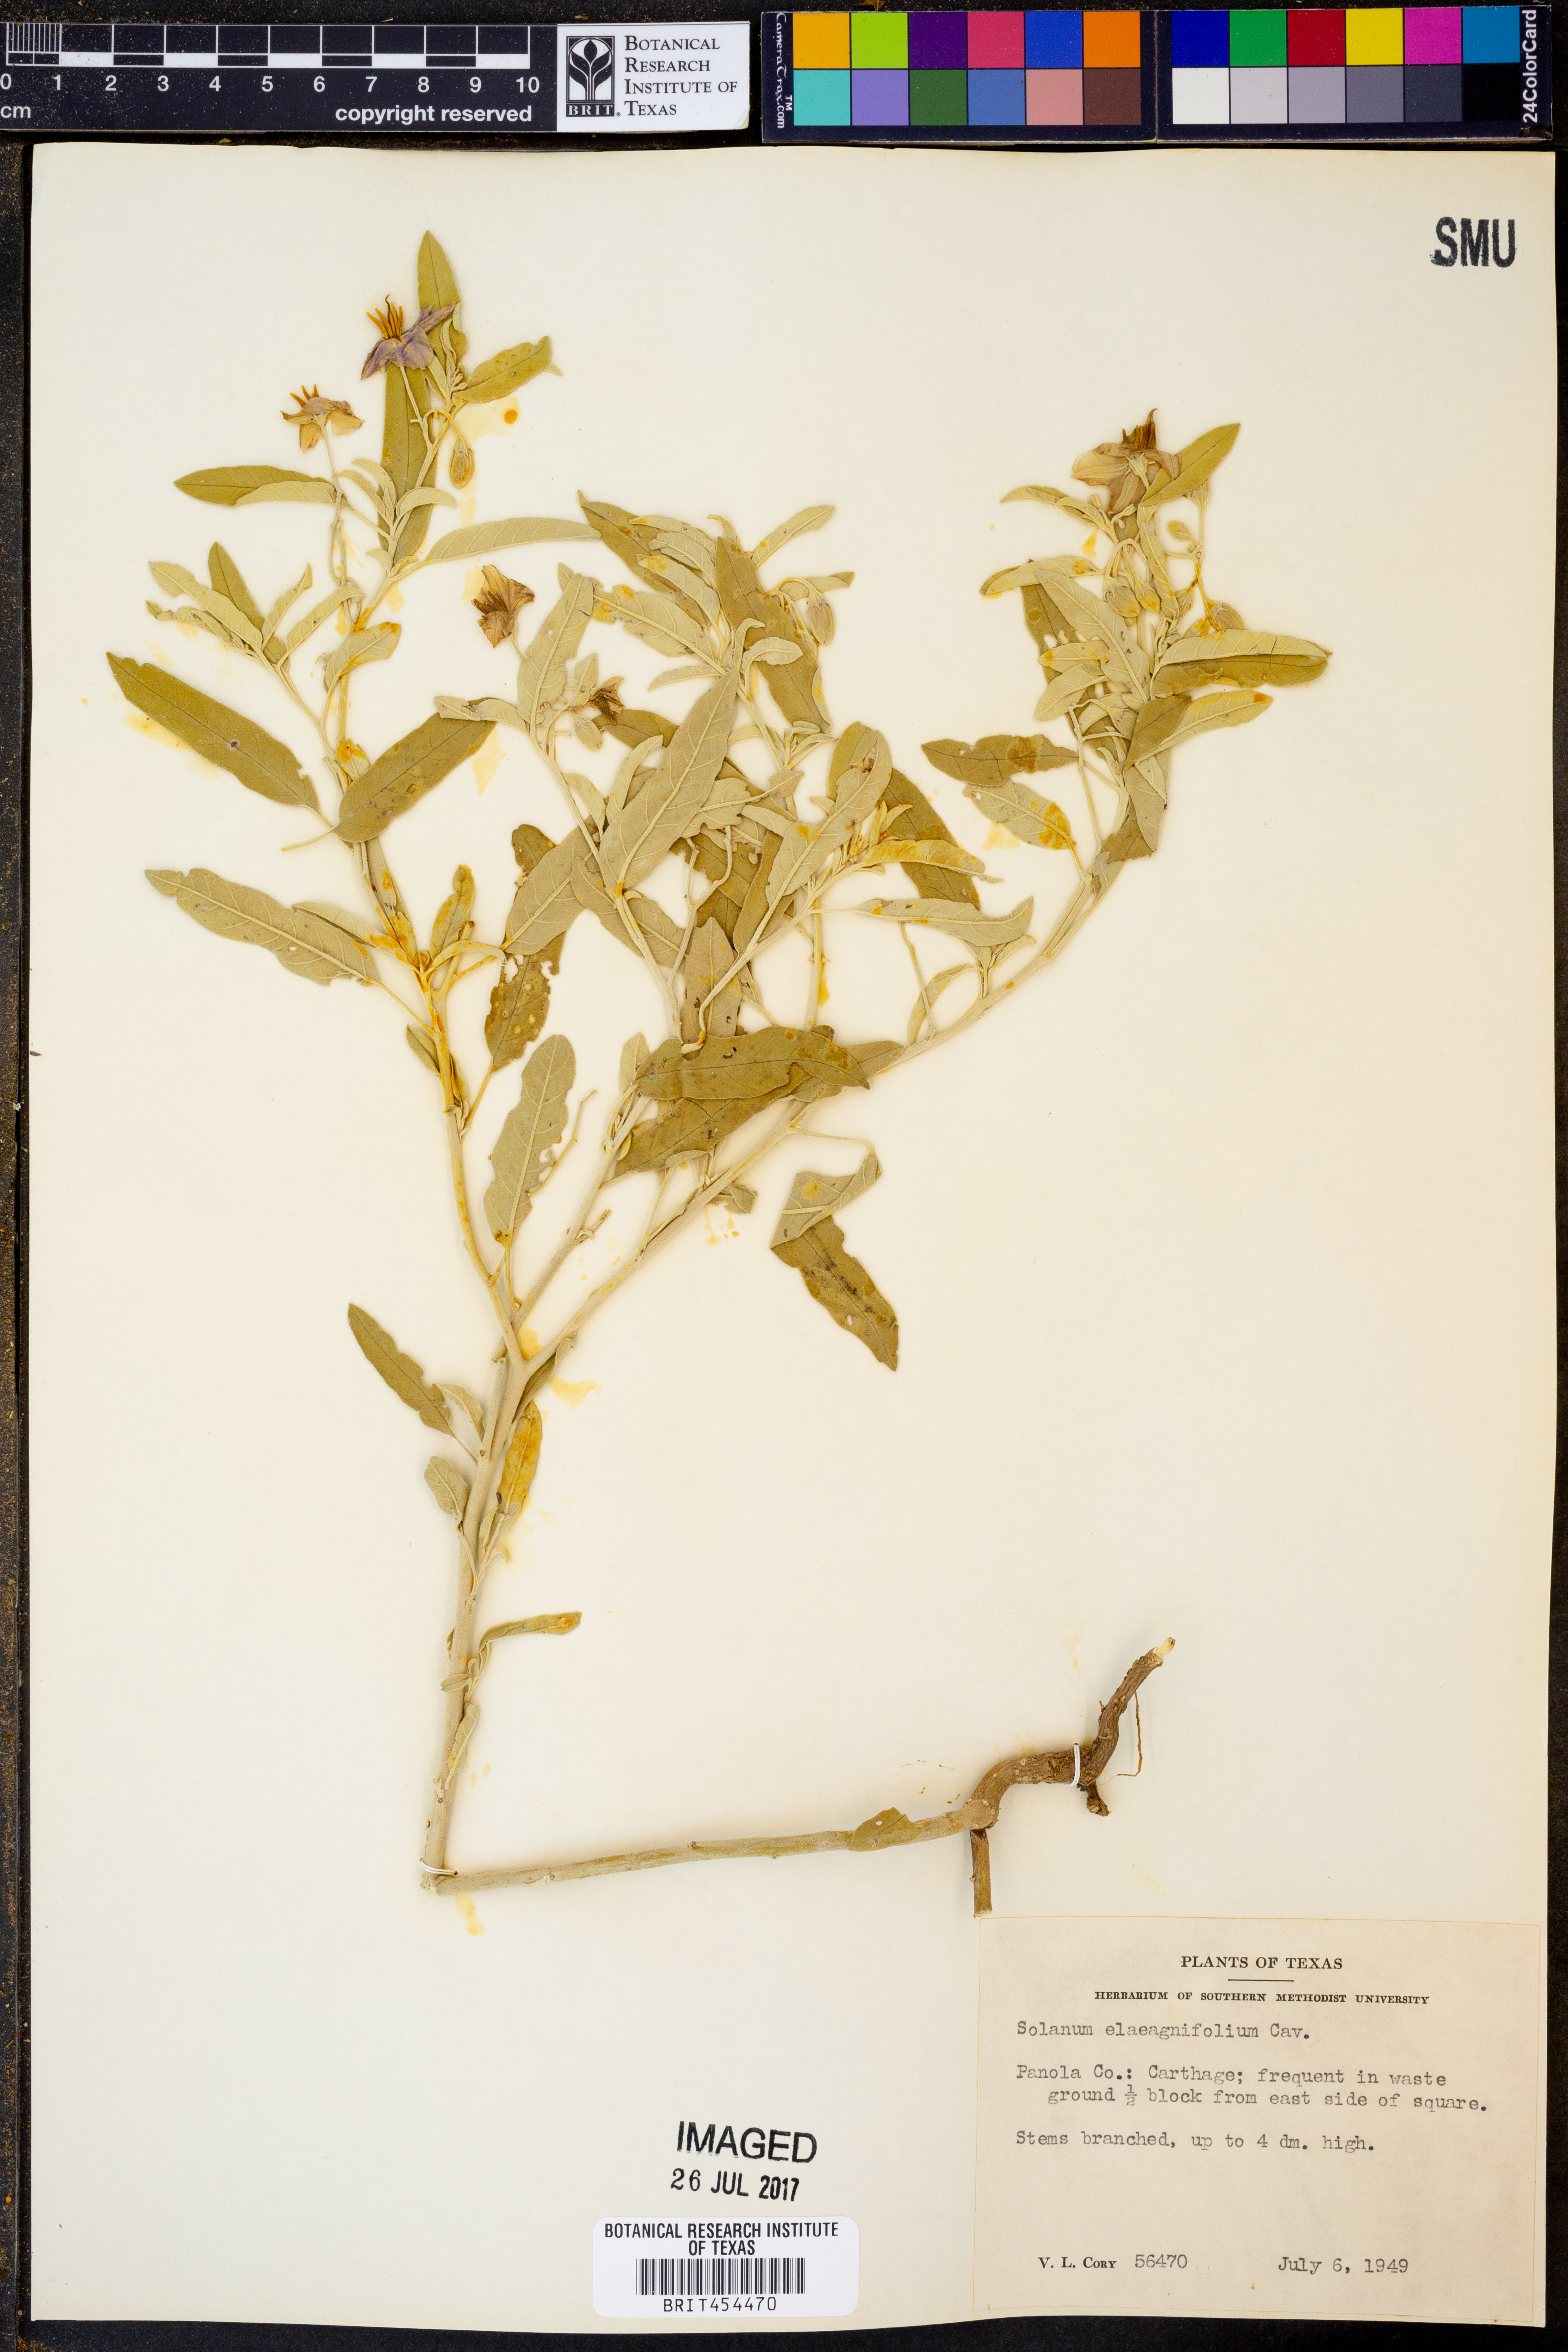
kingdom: Plantae
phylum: Tracheophyta
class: Magnoliopsida
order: Solanales
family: Solanaceae
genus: Solanum
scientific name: Solanum elaeagnifolium
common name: Silverleaf nightshade
